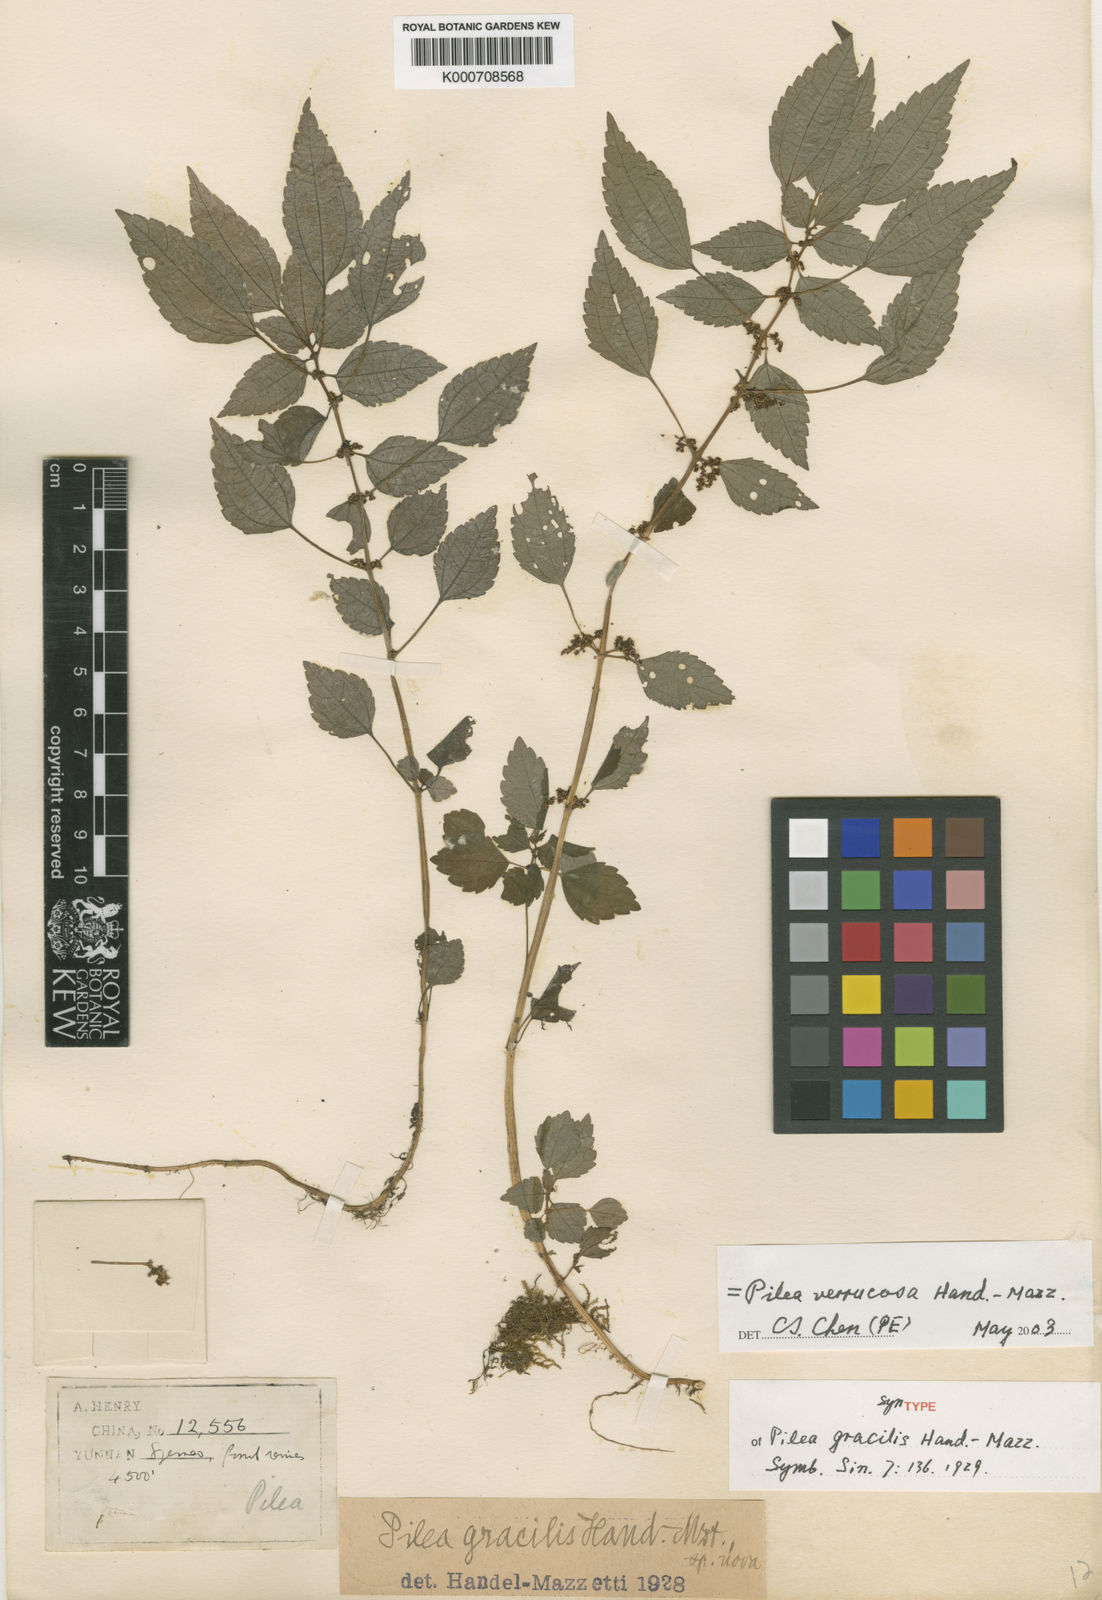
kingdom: Plantae
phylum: Tracheophyta
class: Magnoliopsida
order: Rosales
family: Urticaceae
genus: Pilea
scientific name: Pilea gracilis
